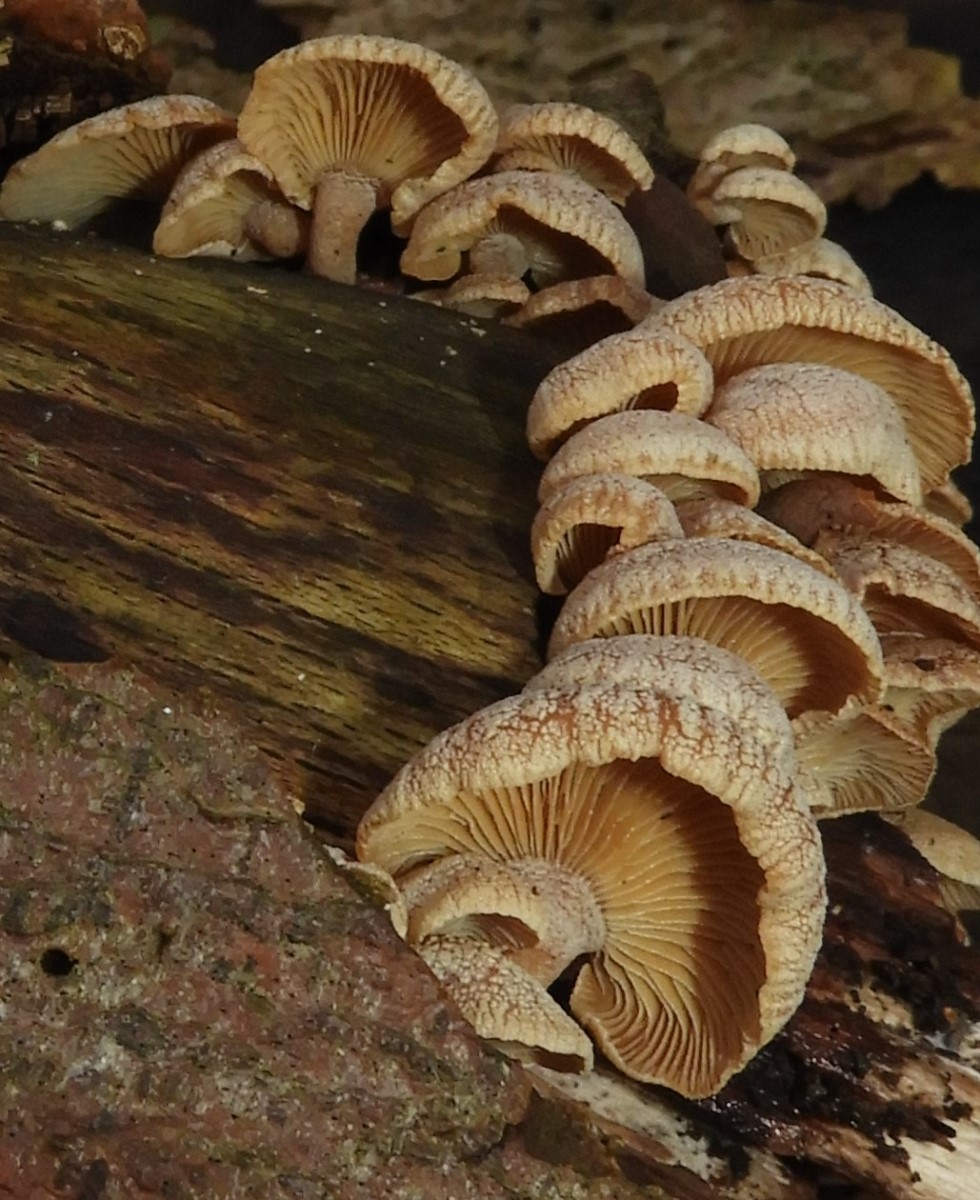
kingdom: Fungi
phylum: Basidiomycota
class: Agaricomycetes
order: Agaricales
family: Mycenaceae
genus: Panellus
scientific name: Panellus stipticus
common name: kliddet epaulethat
